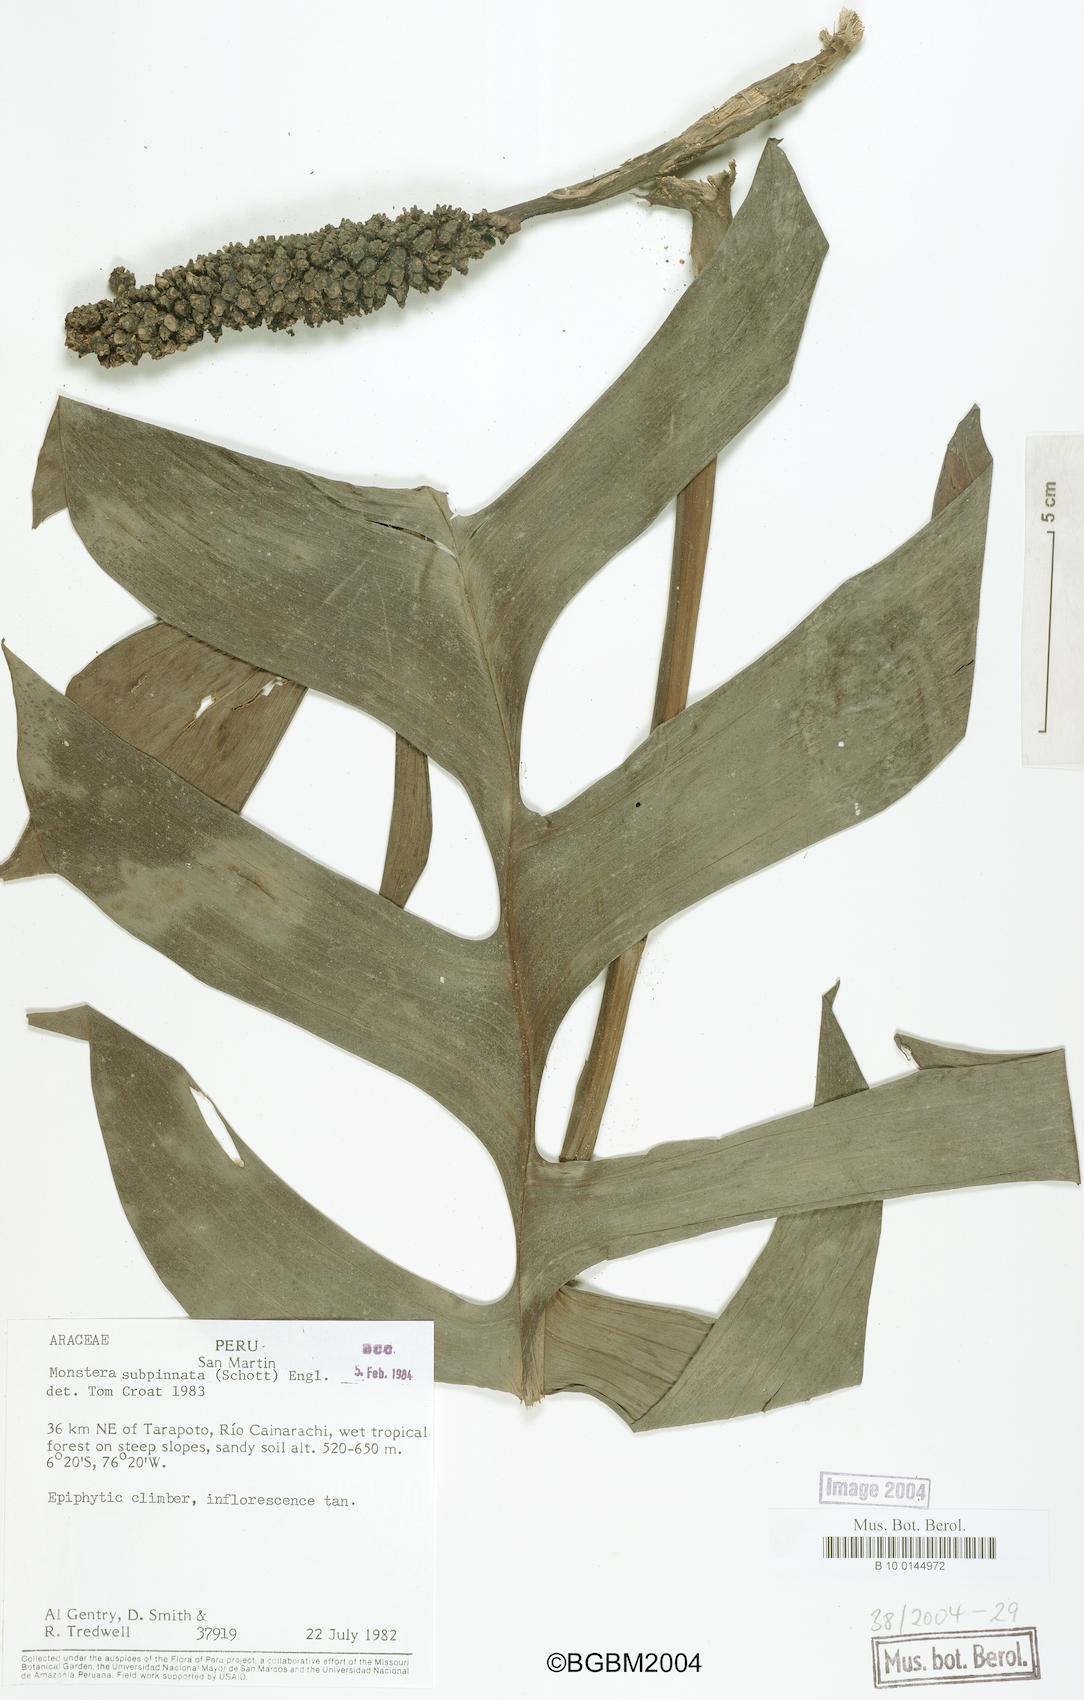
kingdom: Plantae
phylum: Tracheophyta
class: Liliopsida
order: Alismatales
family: Araceae
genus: Monstera
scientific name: Monstera subpinnata
